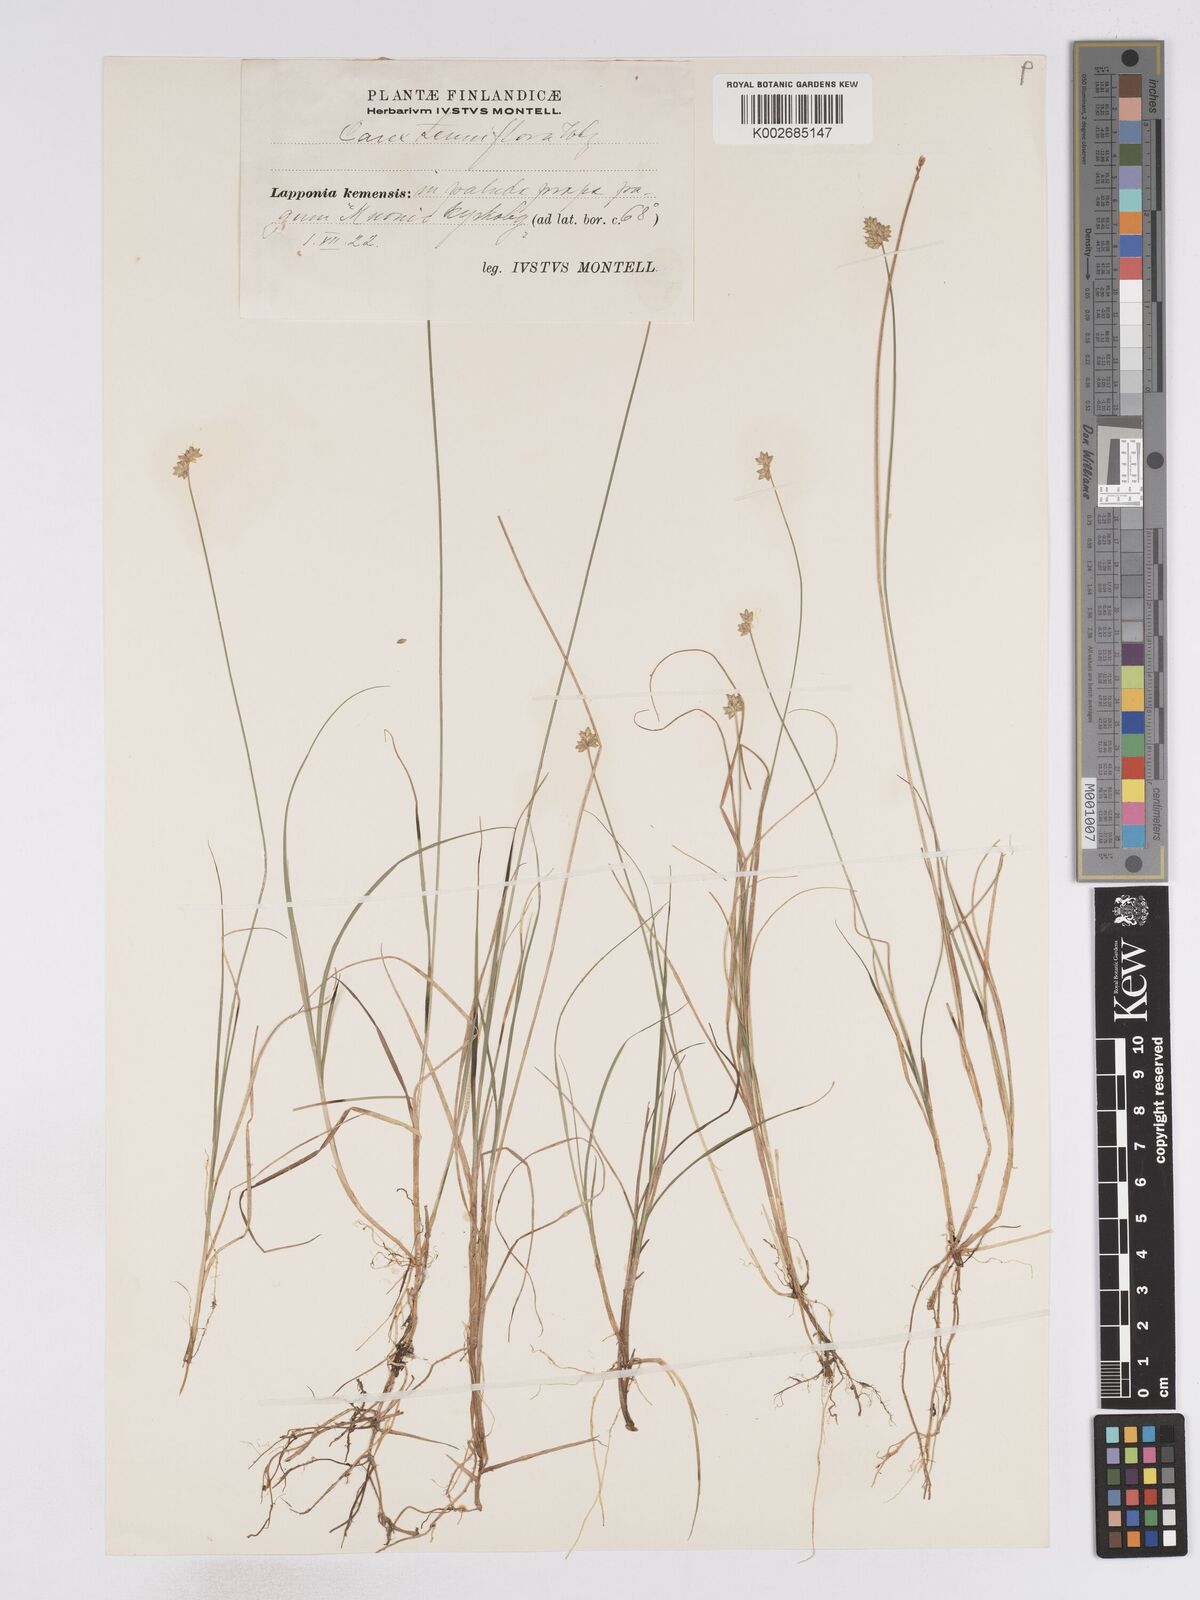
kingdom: Plantae
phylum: Tracheophyta
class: Liliopsida
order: Poales
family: Cyperaceae
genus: Carex
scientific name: Carex tenuiflora
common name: Sparse-flowered sedge
